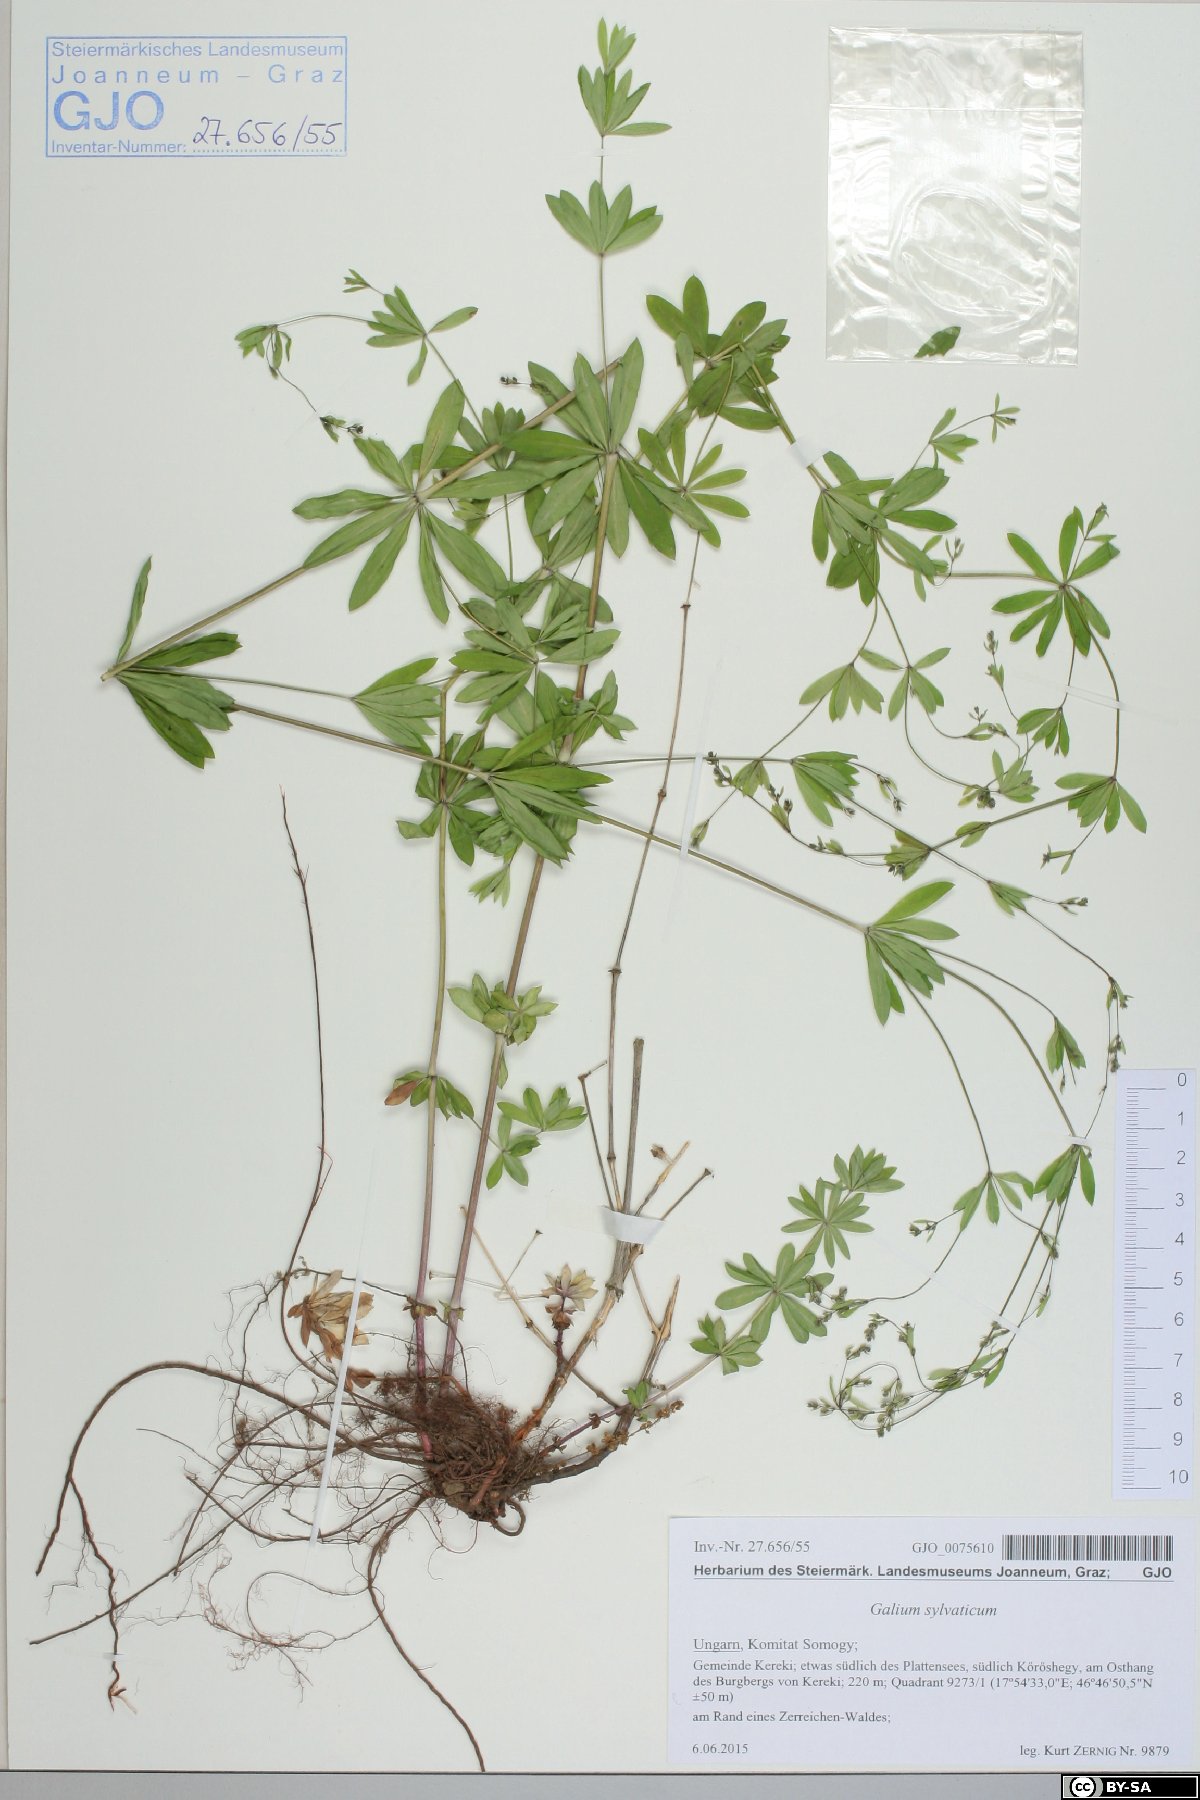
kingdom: Plantae
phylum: Tracheophyta
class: Magnoliopsida
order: Gentianales
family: Rubiaceae
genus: Galium
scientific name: Galium sylvaticum
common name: Wood bedstraw
